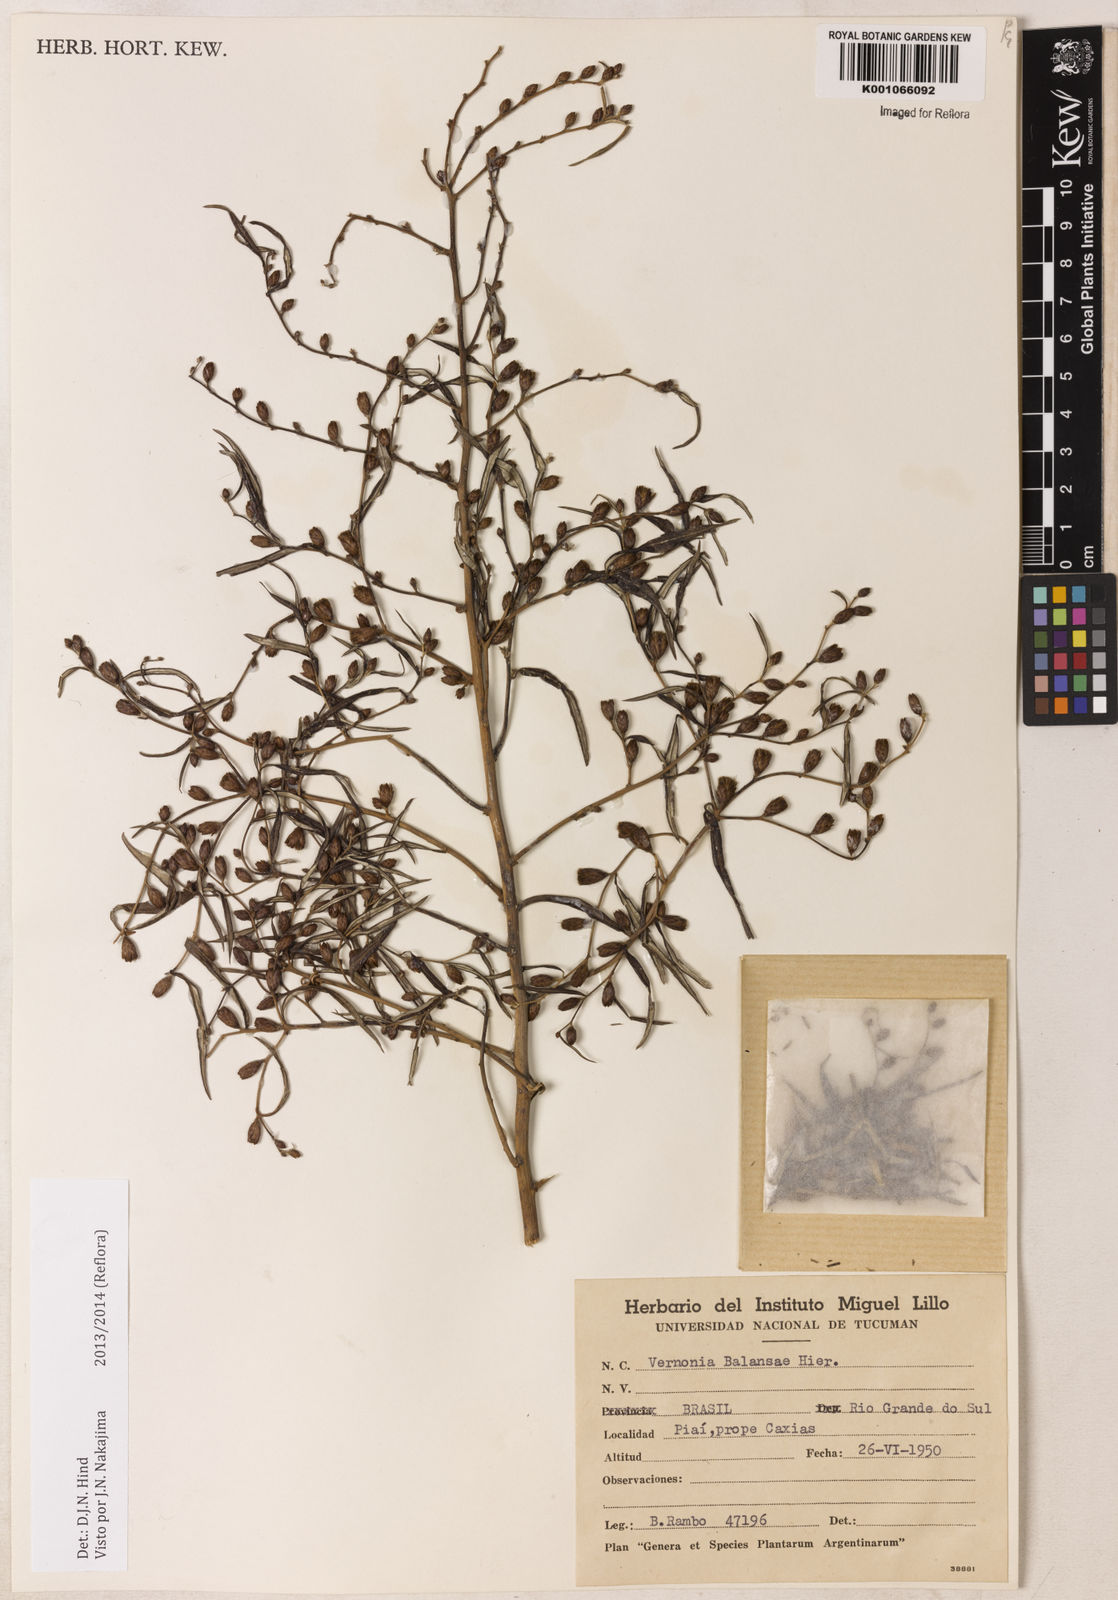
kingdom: Plantae
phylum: Tracheophyta
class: Magnoliopsida
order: Asterales
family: Asteraceae
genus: Vernonia
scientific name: Vernonia balansae
